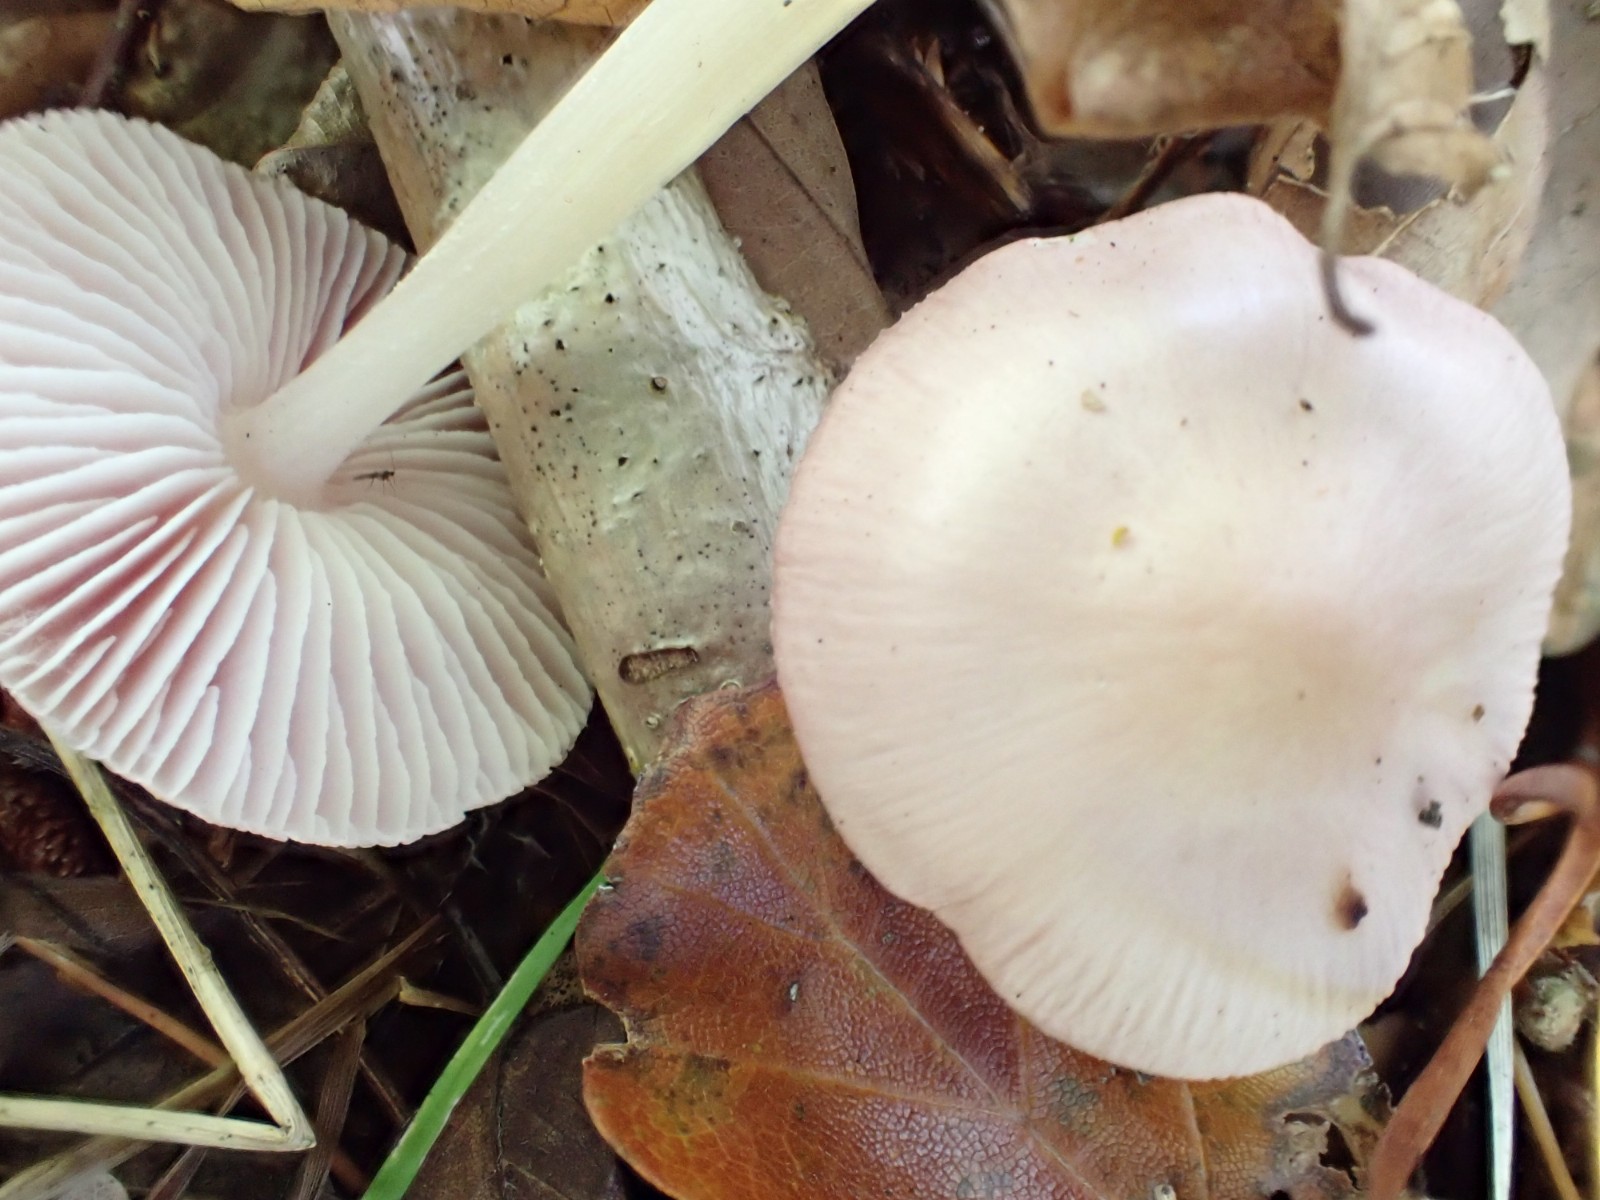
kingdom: Fungi
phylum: Basidiomycota
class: Agaricomycetes
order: Agaricales
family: Mycenaceae
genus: Mycena
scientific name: Mycena rosea
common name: rosa huesvamp
